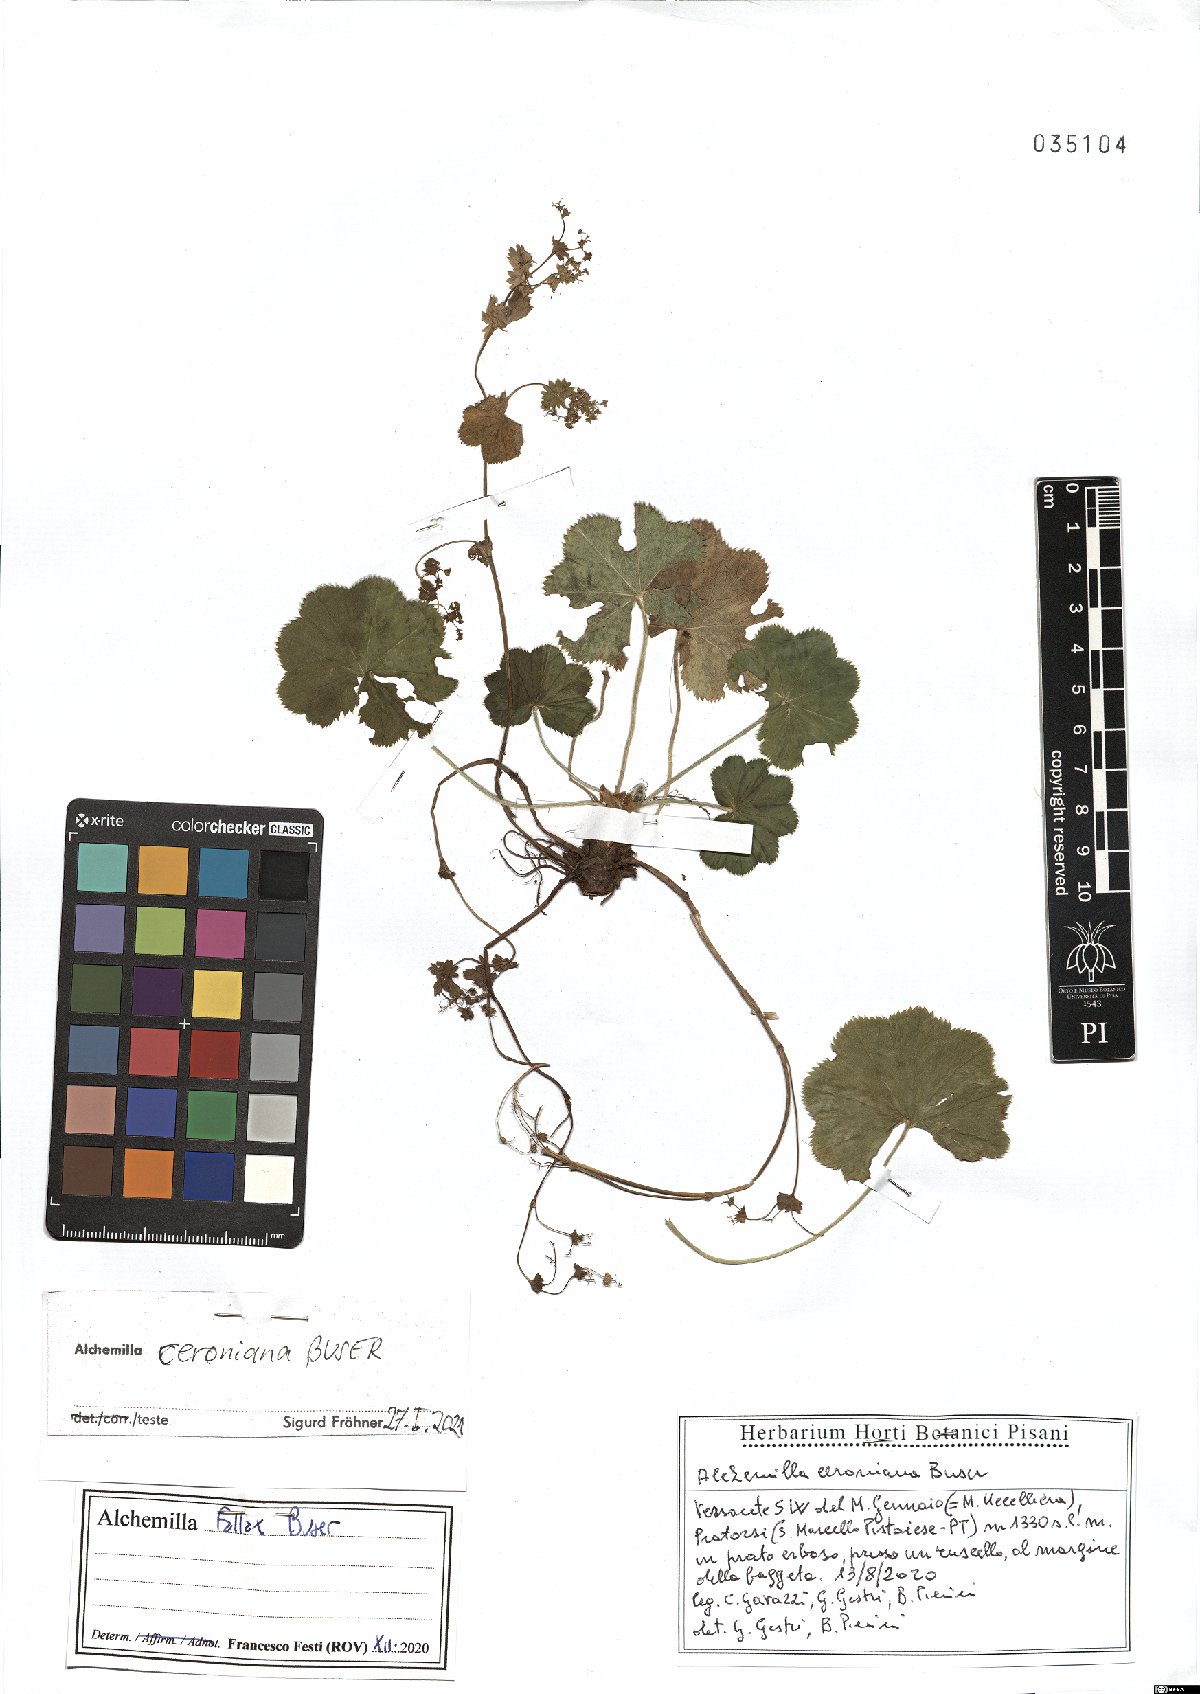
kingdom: Plantae
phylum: Tracheophyta
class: Magnoliopsida
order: Rosales
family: Rosaceae
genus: Alchemilla
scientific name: Alchemilla ceroniana
